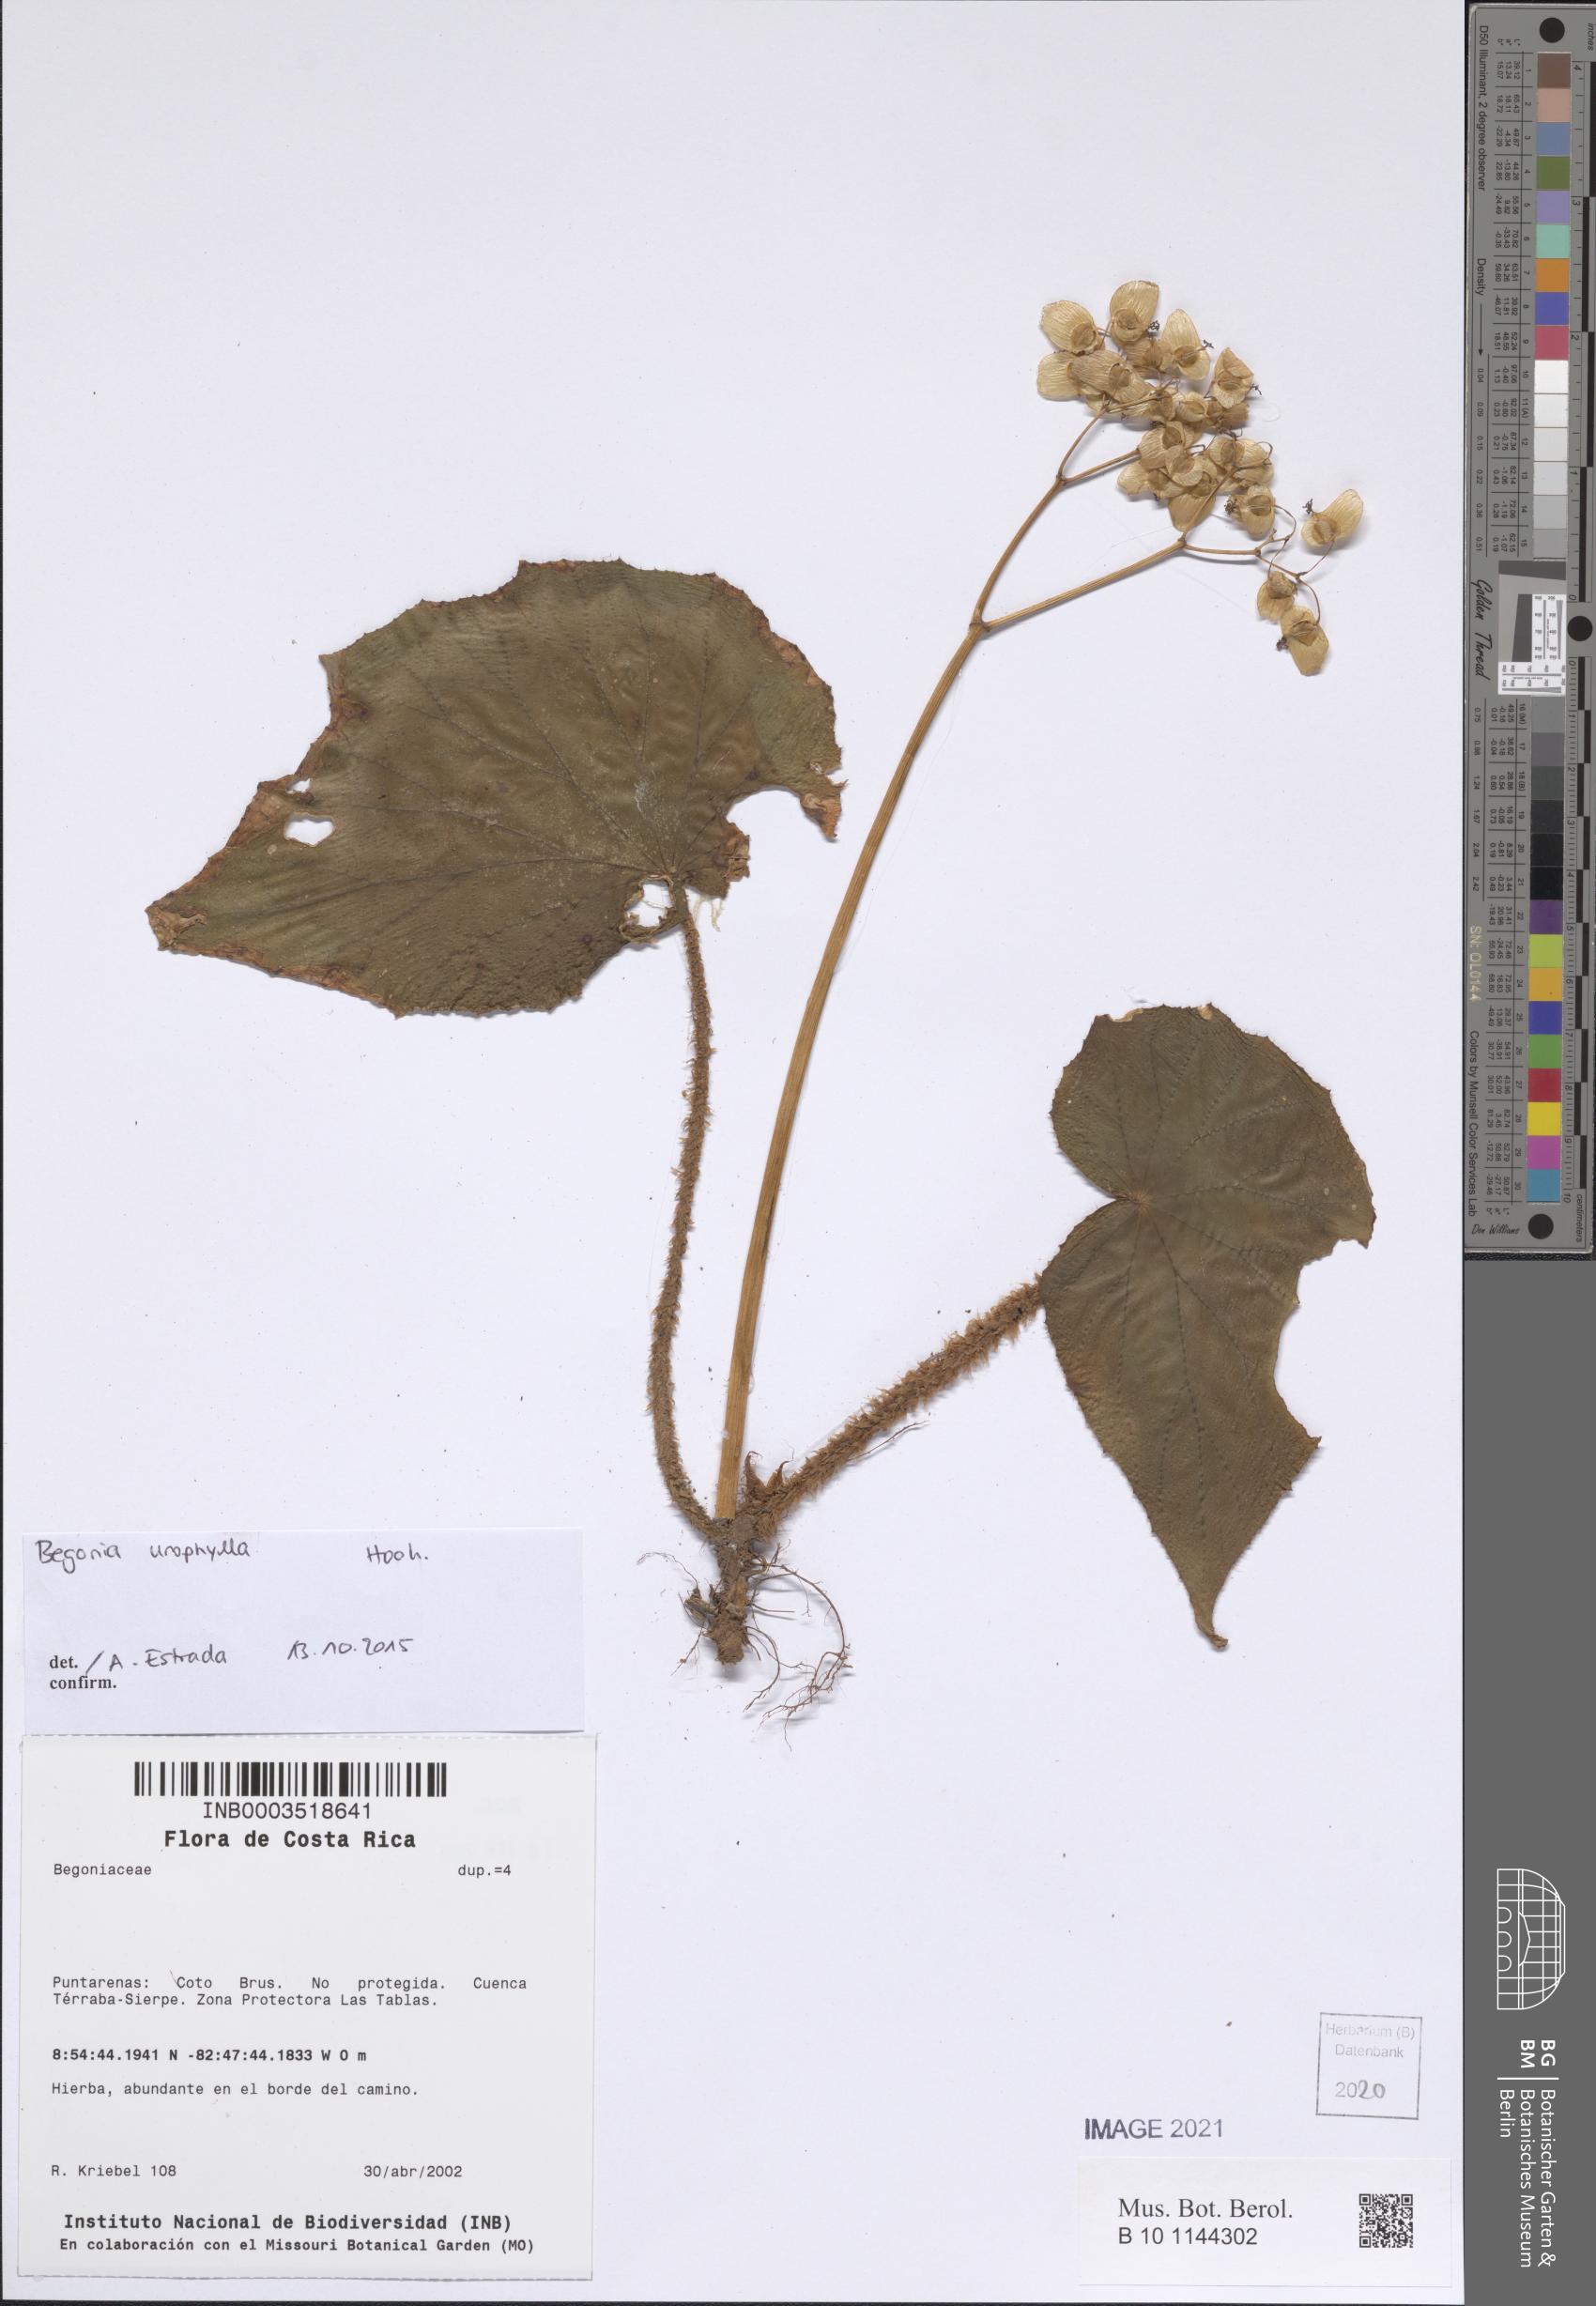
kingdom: Plantae
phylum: Tracheophyta
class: Magnoliopsida
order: Cucurbitales
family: Begoniaceae
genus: Begonia
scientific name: Begonia vestita
